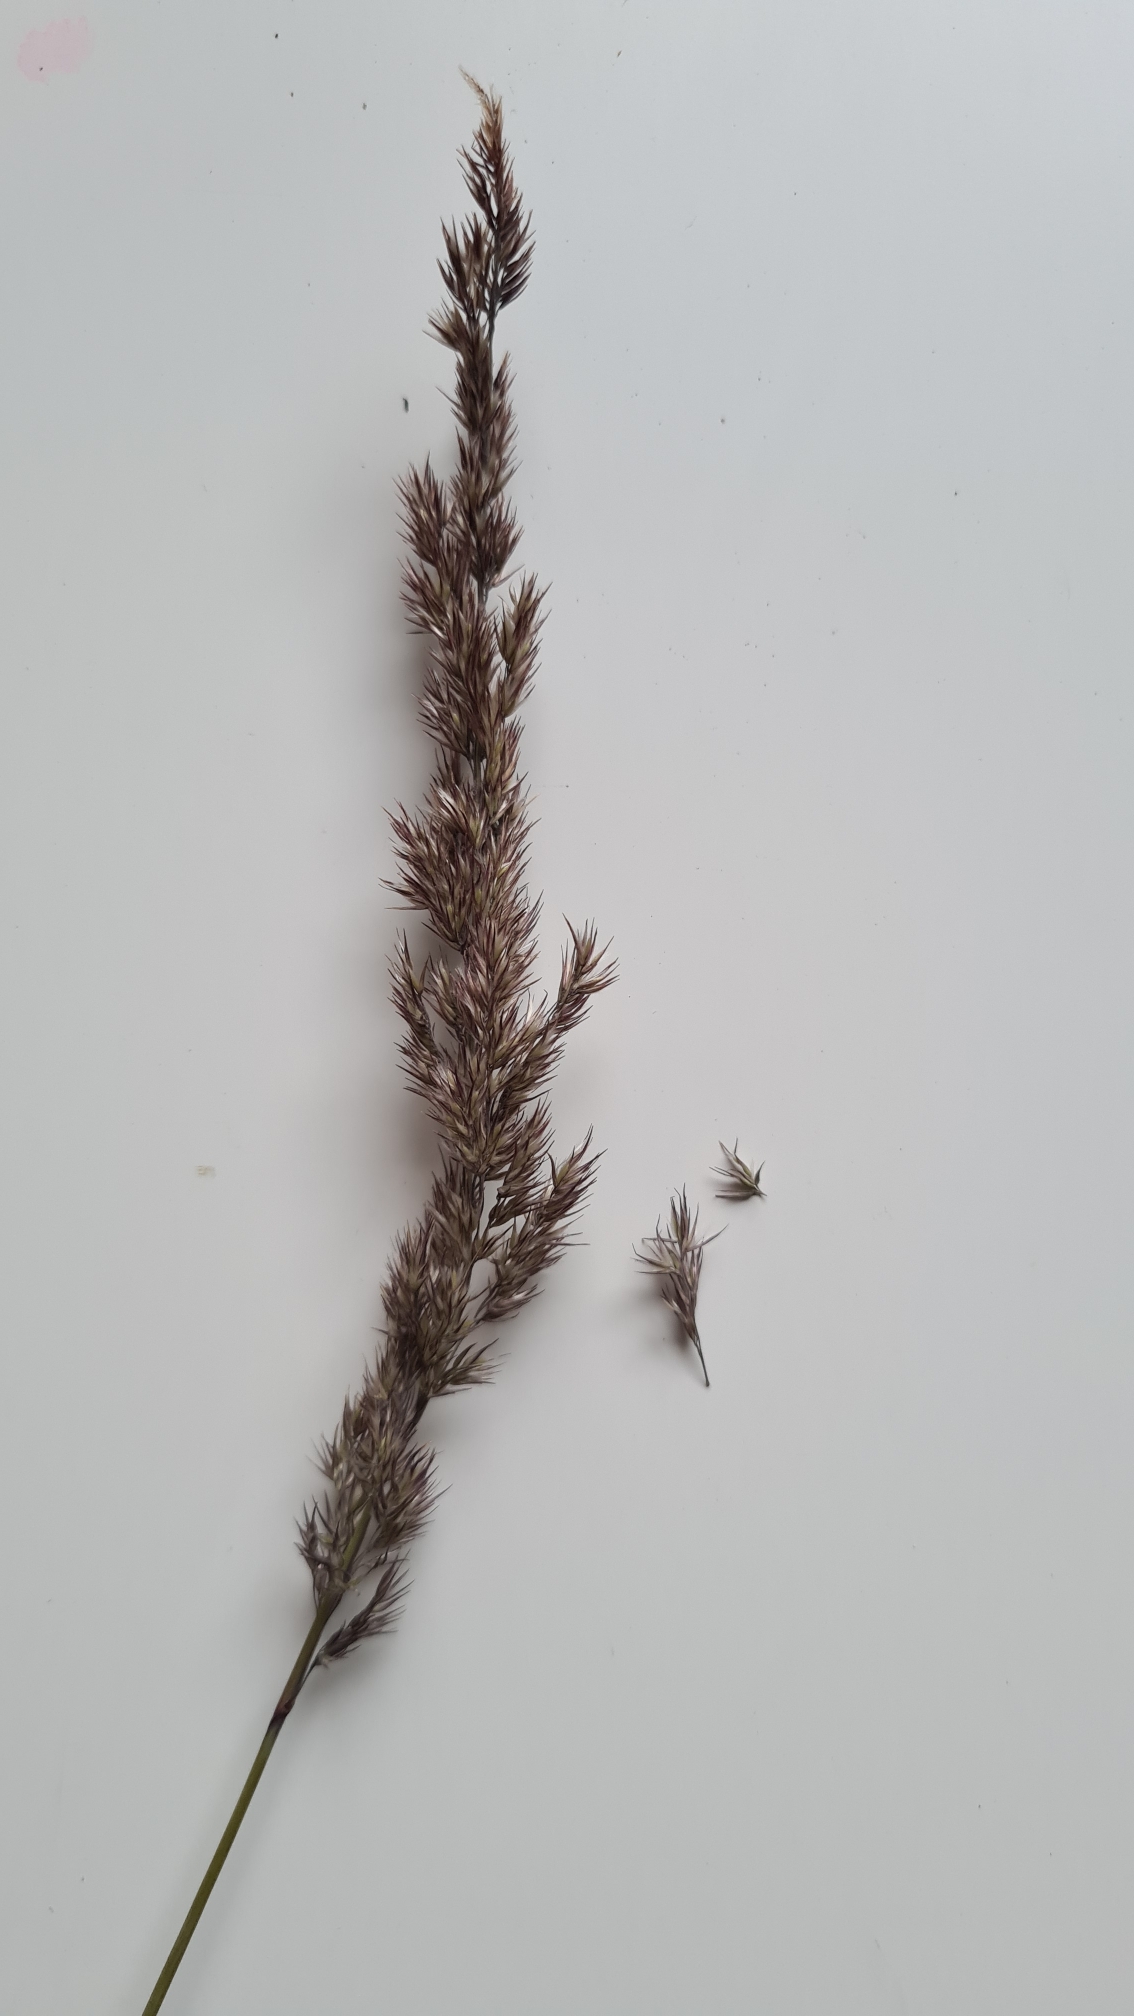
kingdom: Plantae
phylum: Tracheophyta
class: Liliopsida
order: Poales
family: Poaceae
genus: Calamagrostis
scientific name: Calamagrostis canescens
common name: Eng-rørhvene
